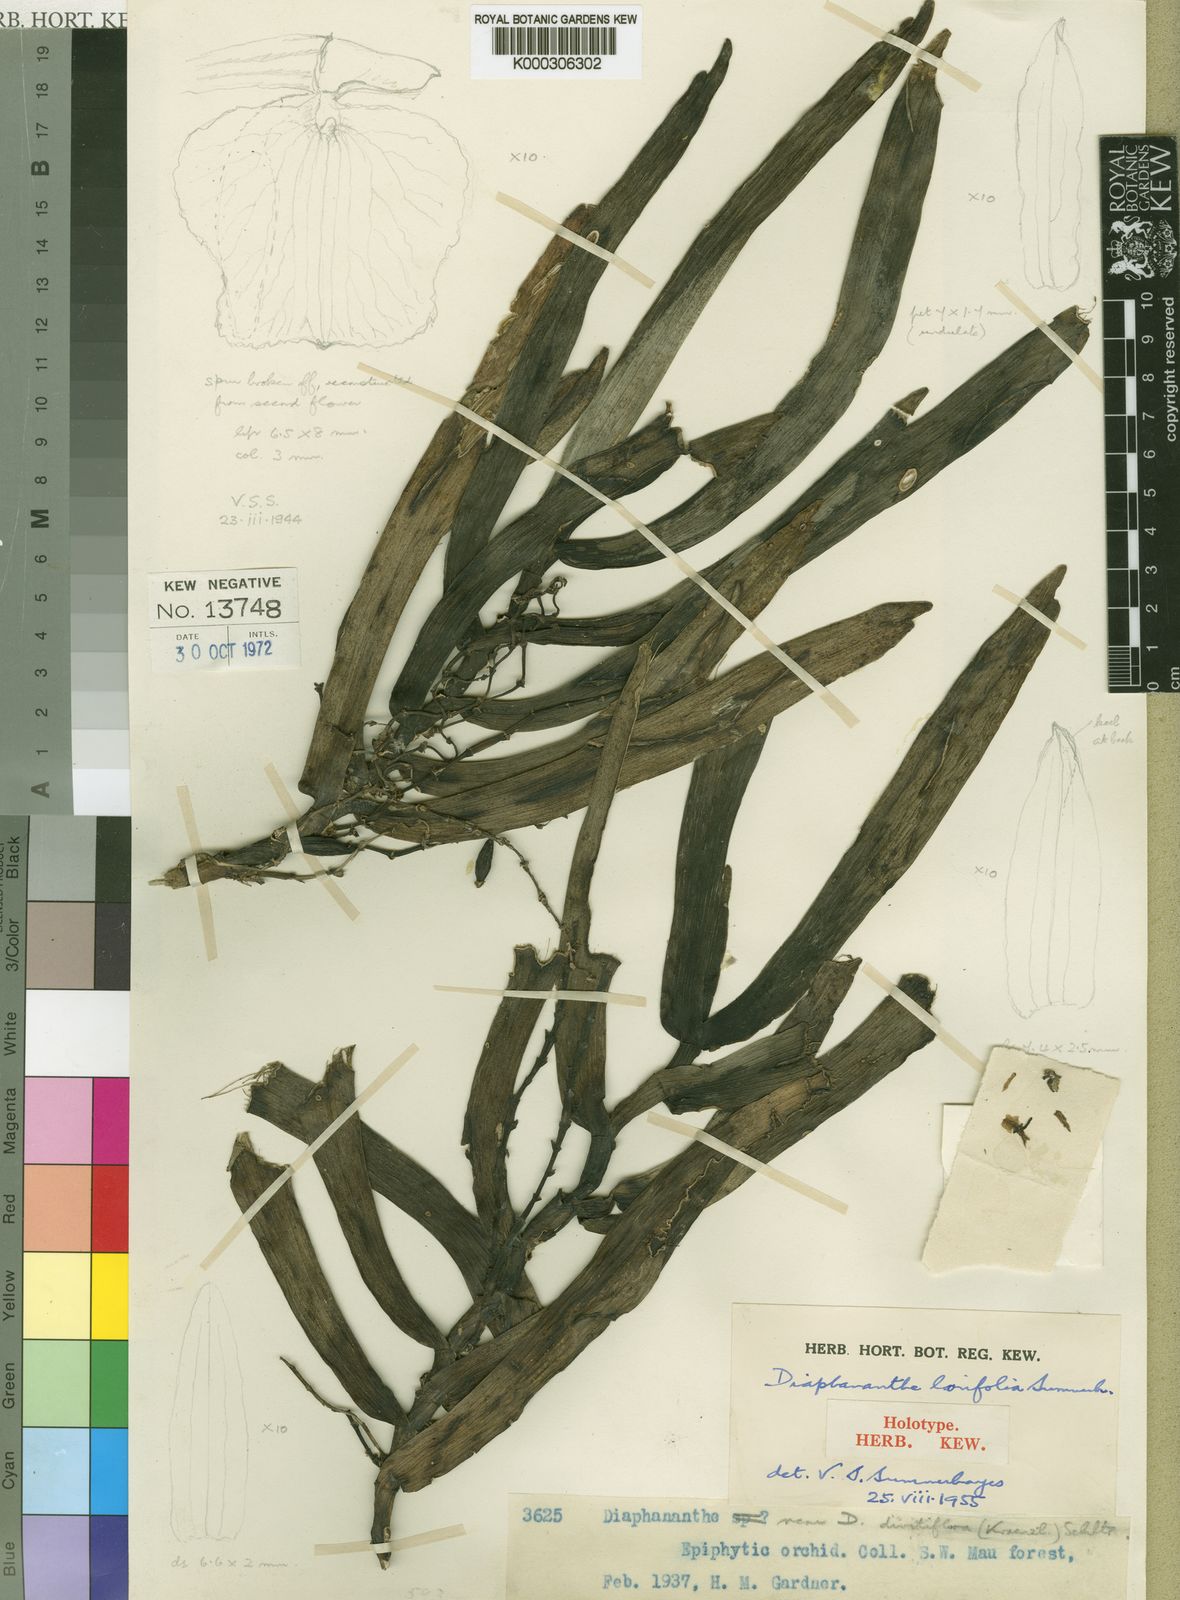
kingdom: Plantae
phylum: Tracheophyta
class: Liliopsida
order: Asparagales
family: Orchidaceae
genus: Diaphananthe
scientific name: Diaphananthe lorifolia
